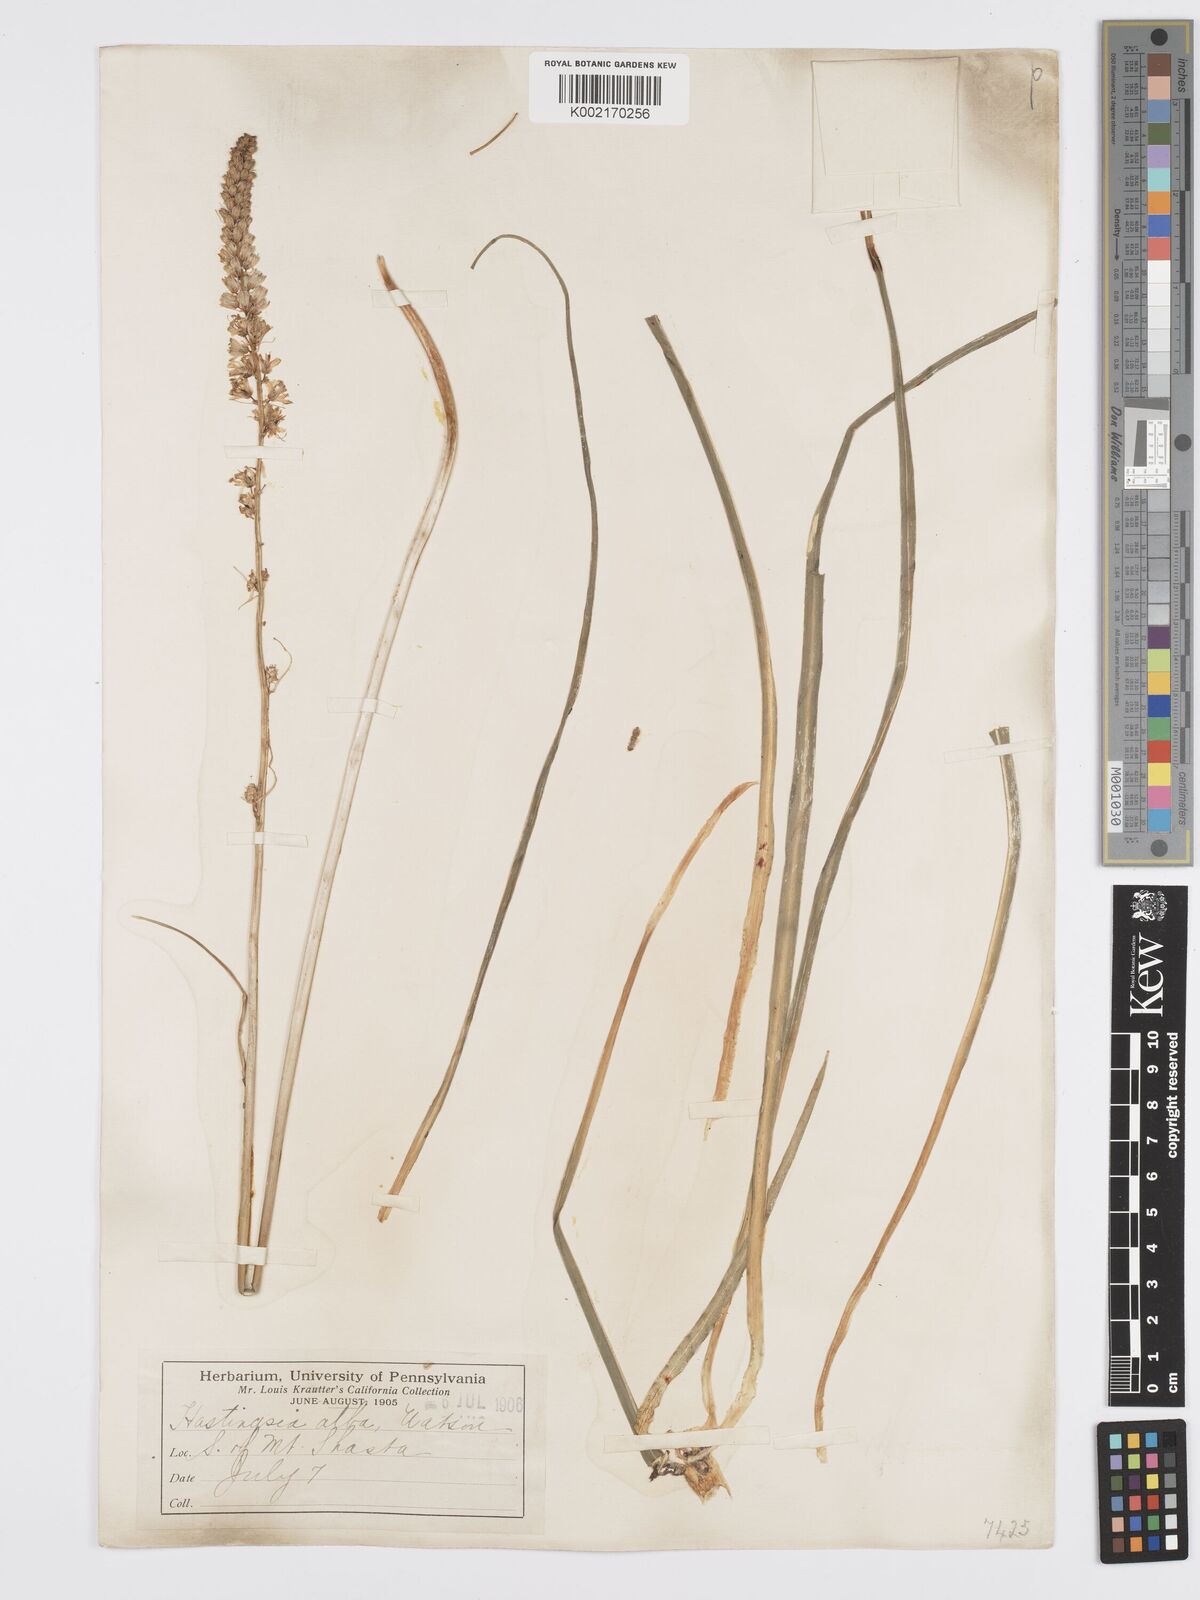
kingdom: Plantae
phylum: Tracheophyta
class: Liliopsida
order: Asparagales
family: Asparagaceae
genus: Hastingsia
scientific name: Hastingsia alba
